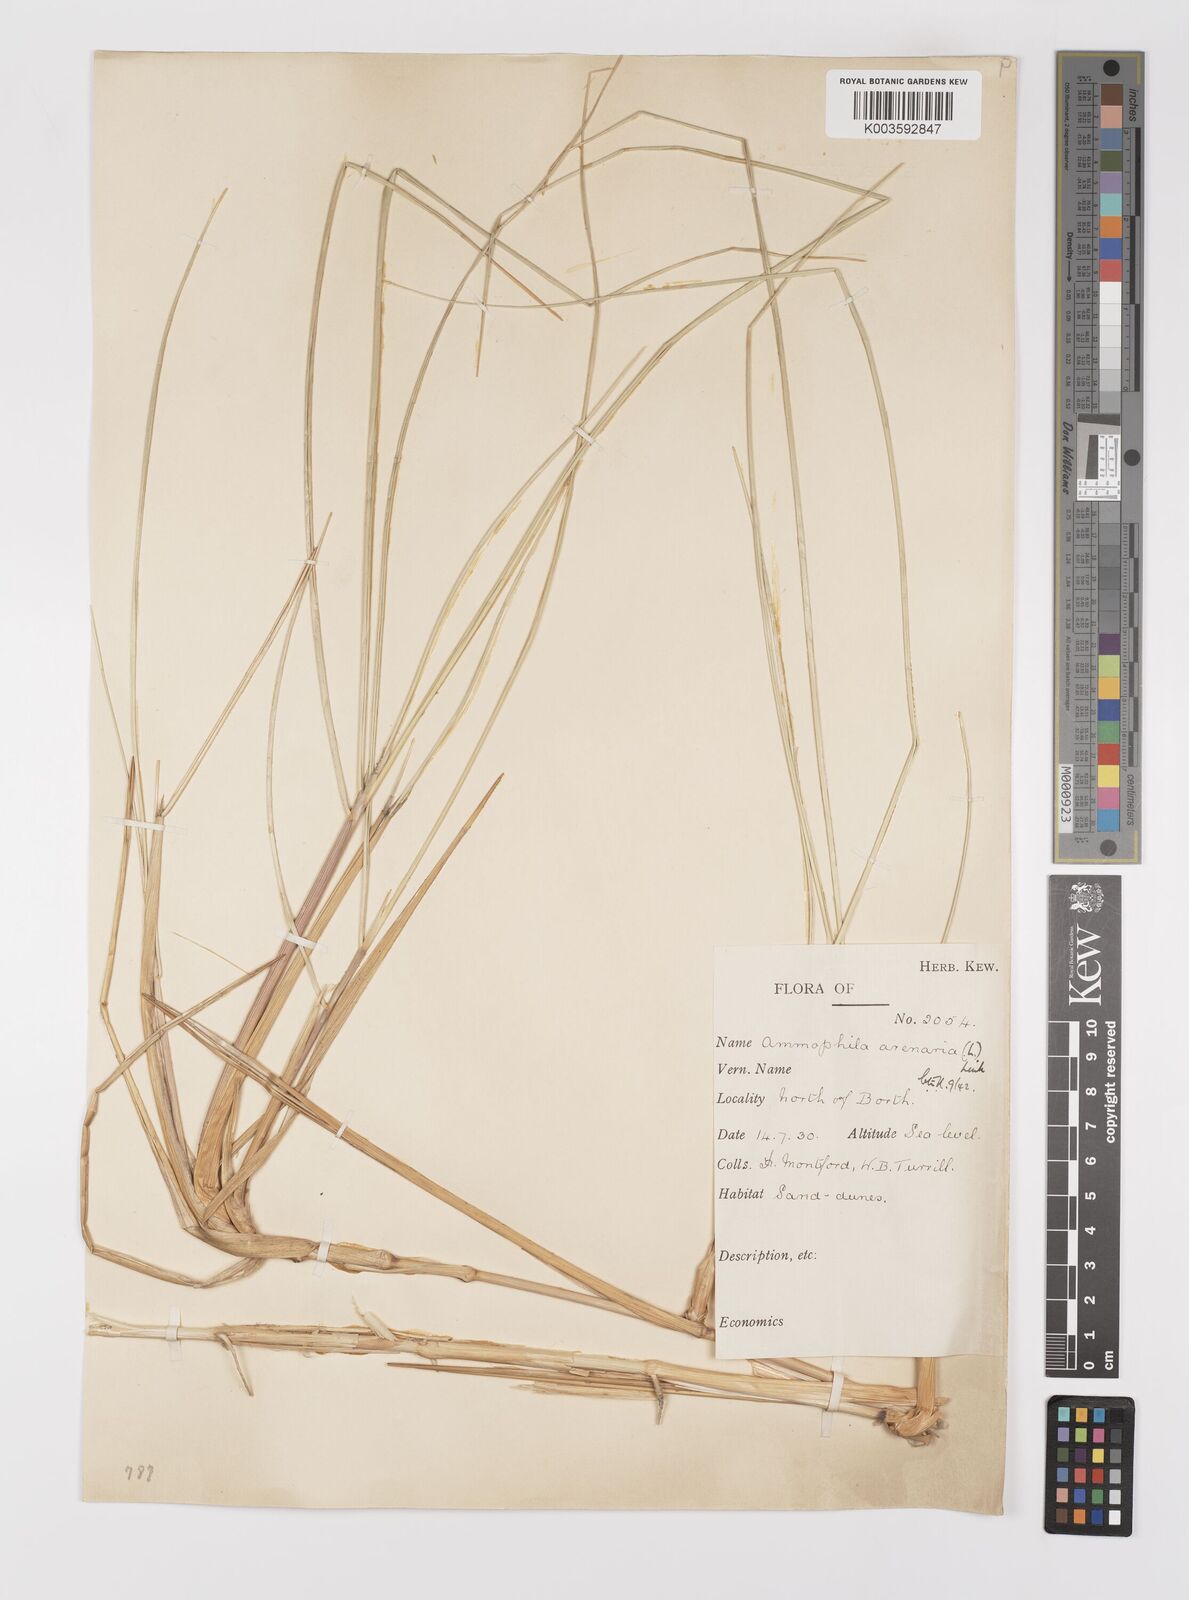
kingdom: Plantae
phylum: Tracheophyta
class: Liliopsida
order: Poales
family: Poaceae
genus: Calamagrostis
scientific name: Calamagrostis arenaria
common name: European beachgrass
